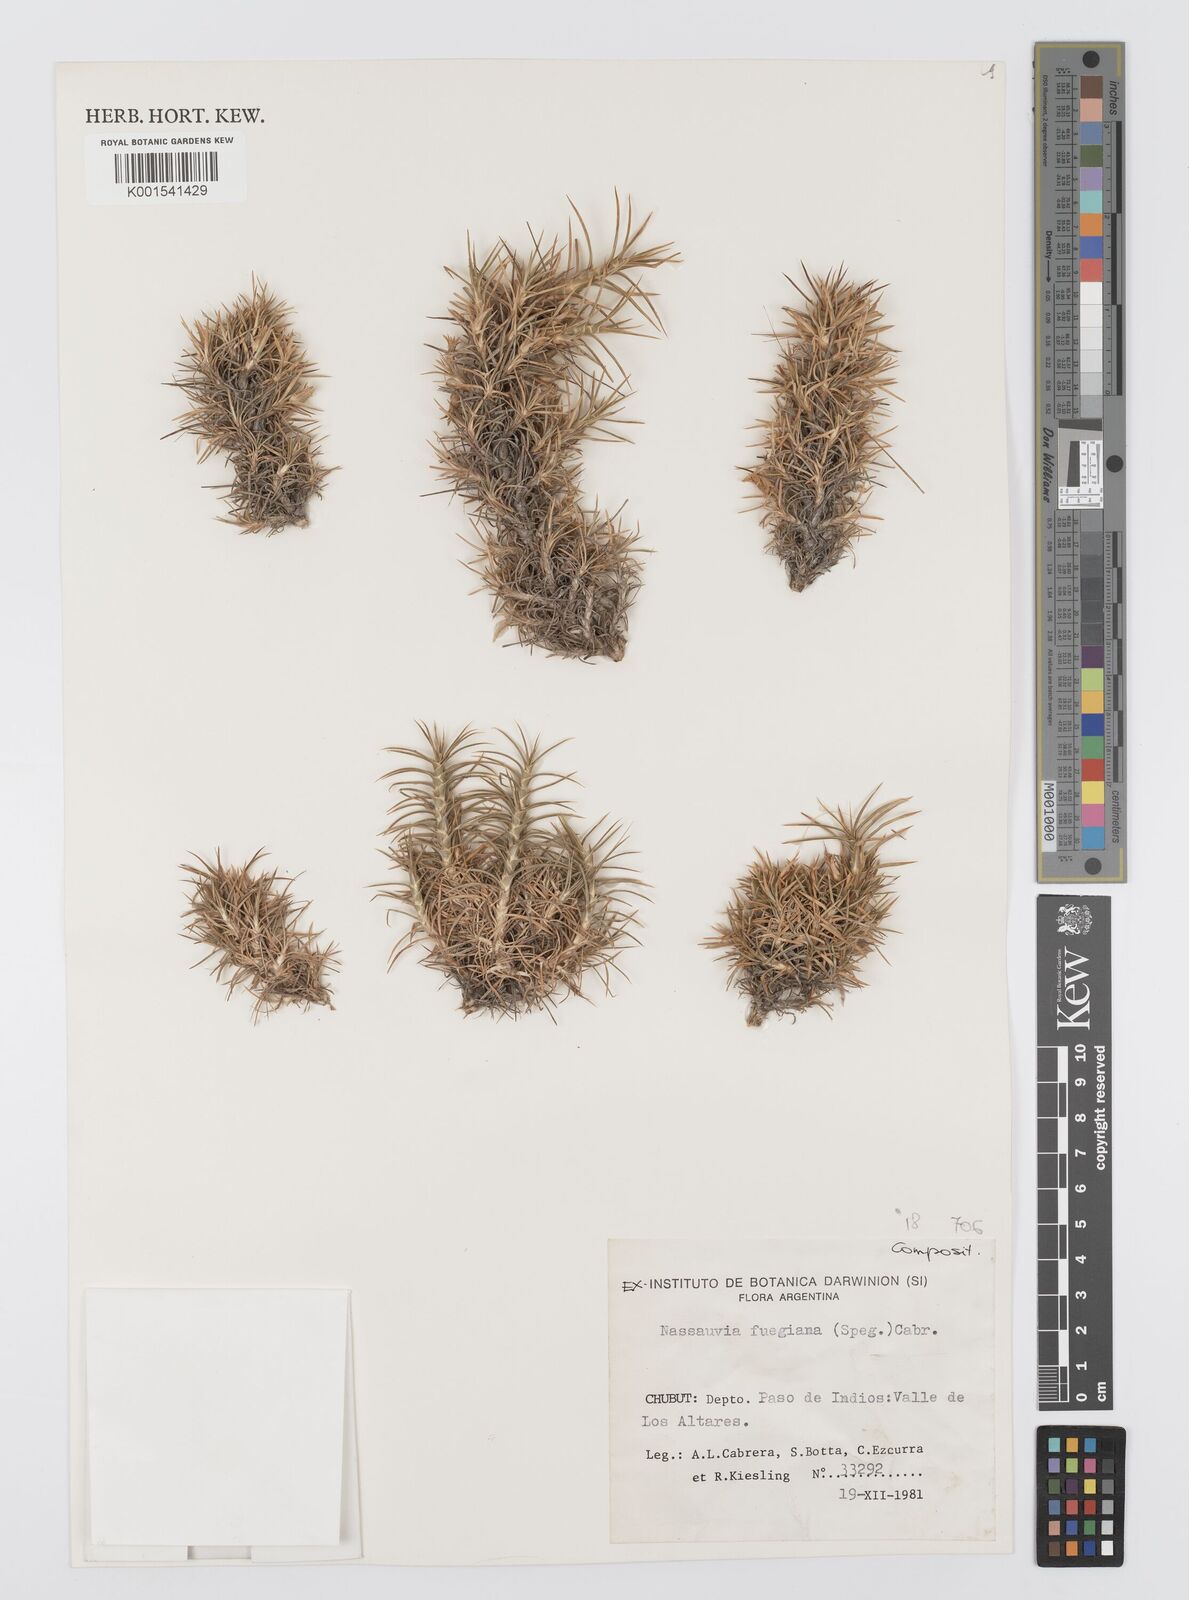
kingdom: Plantae
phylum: Tracheophyta
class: Magnoliopsida
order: Asterales
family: Asteraceae
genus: Nassauvia
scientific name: Nassauvia fuegiana
